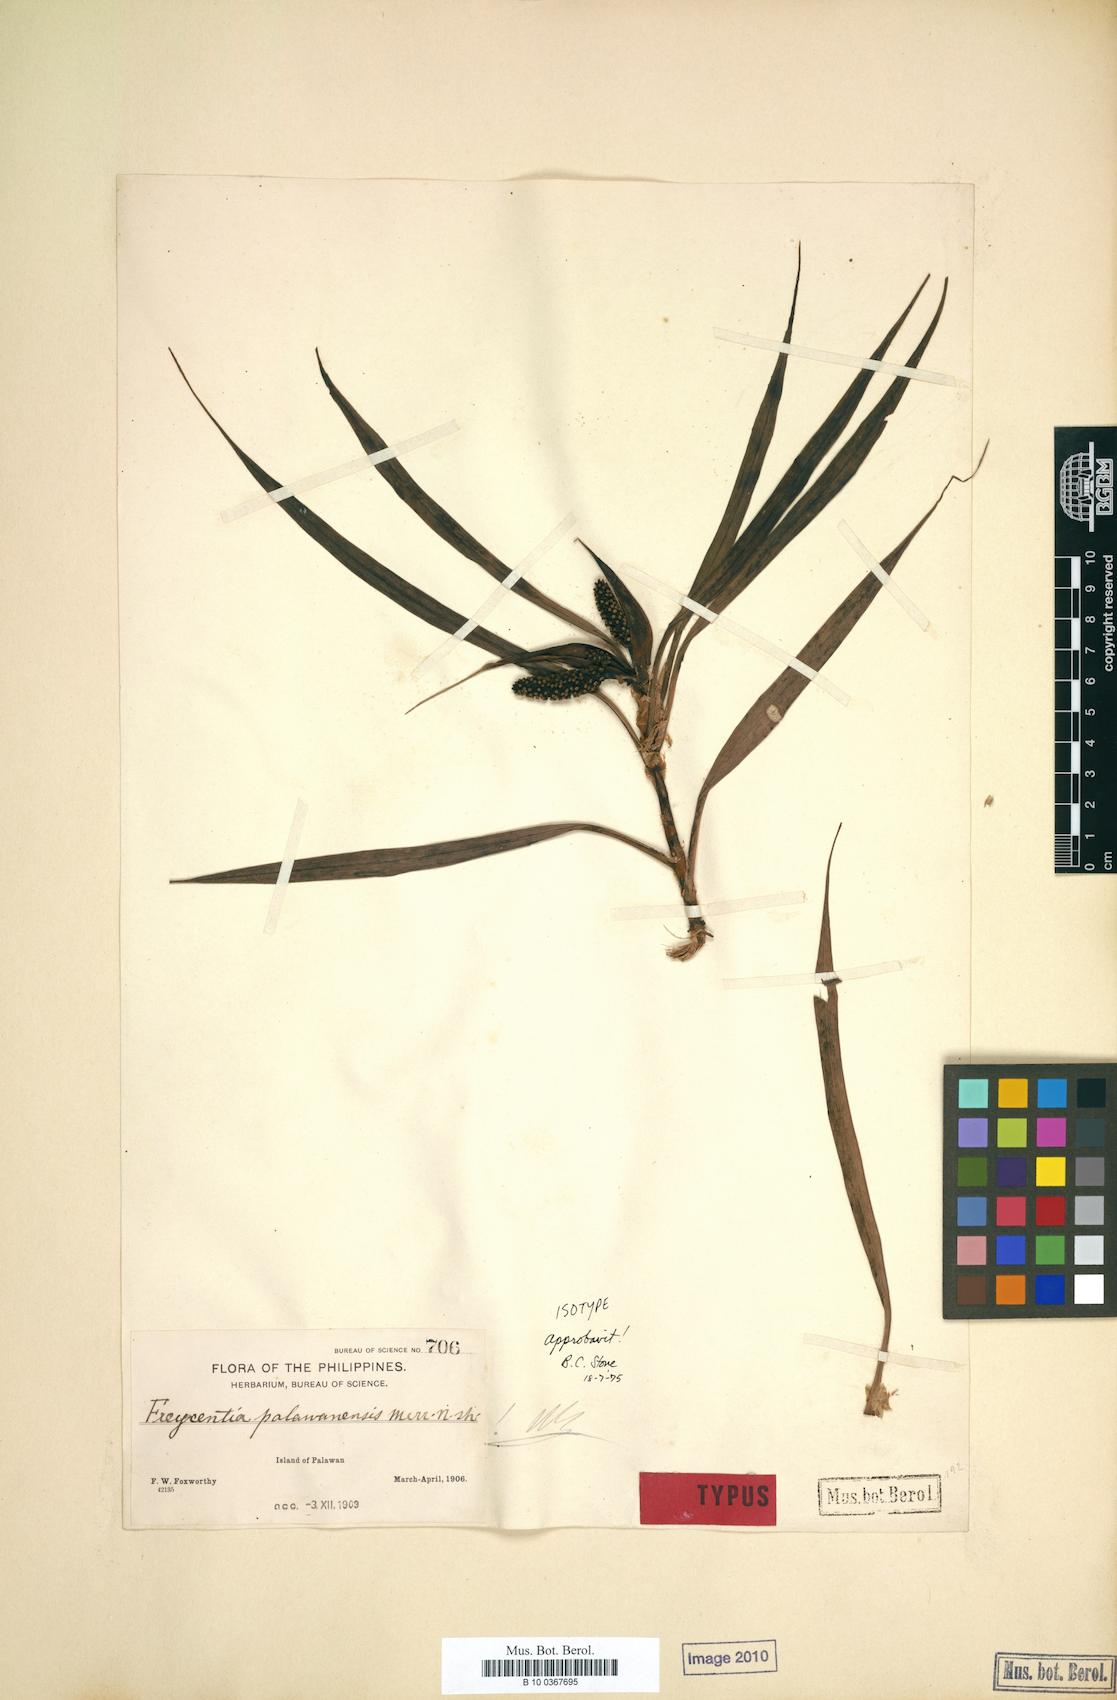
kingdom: Plantae
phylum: Tracheophyta
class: Liliopsida
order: Pandanales
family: Pandanaceae
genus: Freycinetia
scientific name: Freycinetia palawanensis
